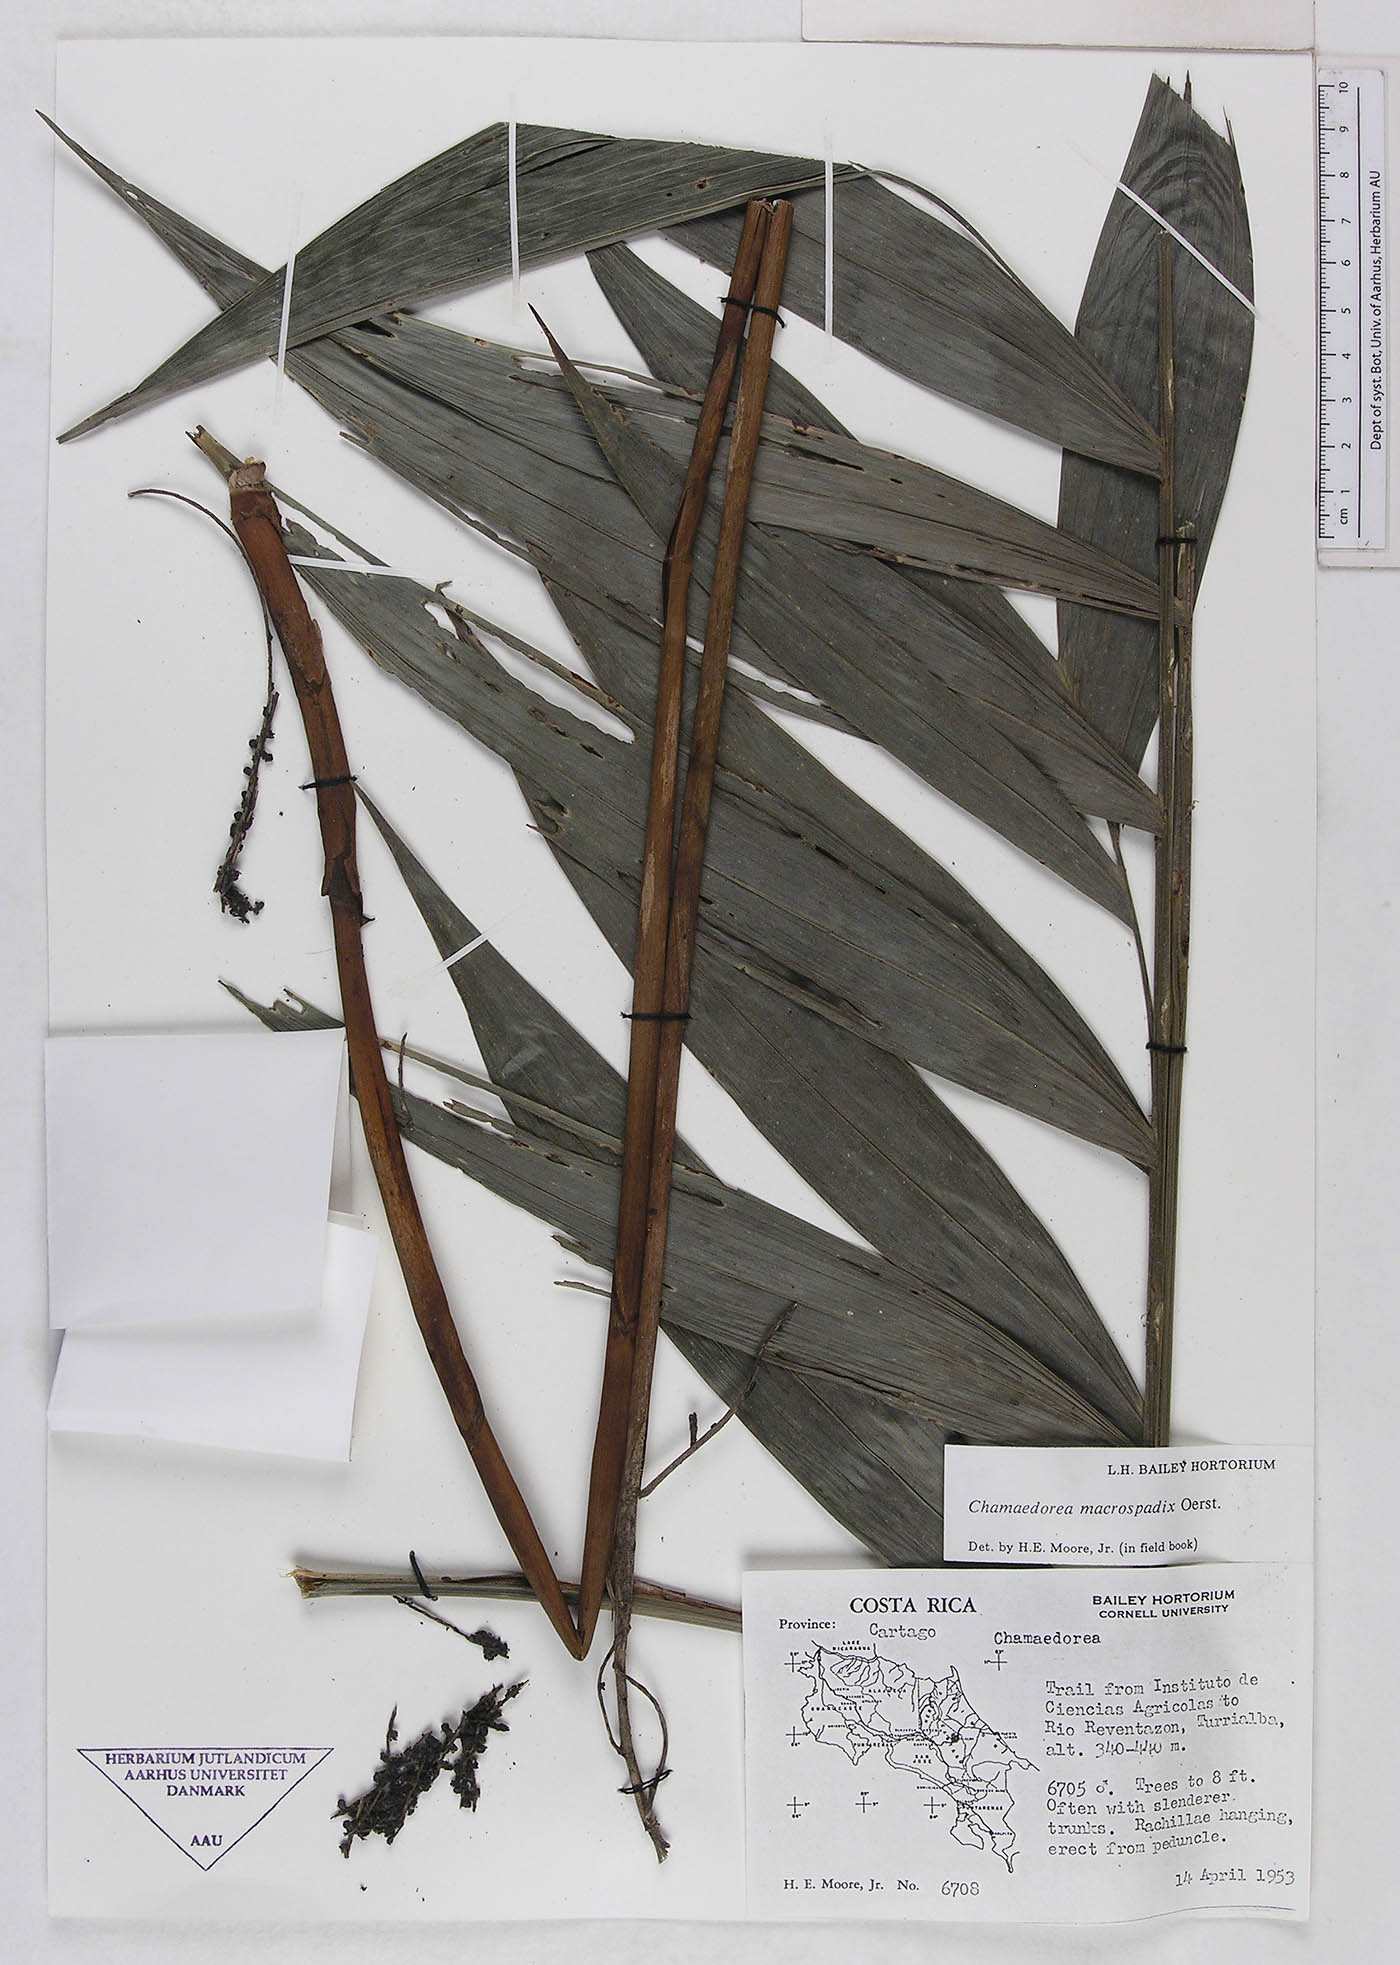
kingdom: Plantae
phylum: Tracheophyta
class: Liliopsida
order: Arecales
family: Arecaceae
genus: Chamaedorea
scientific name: Chamaedorea macrospadix
